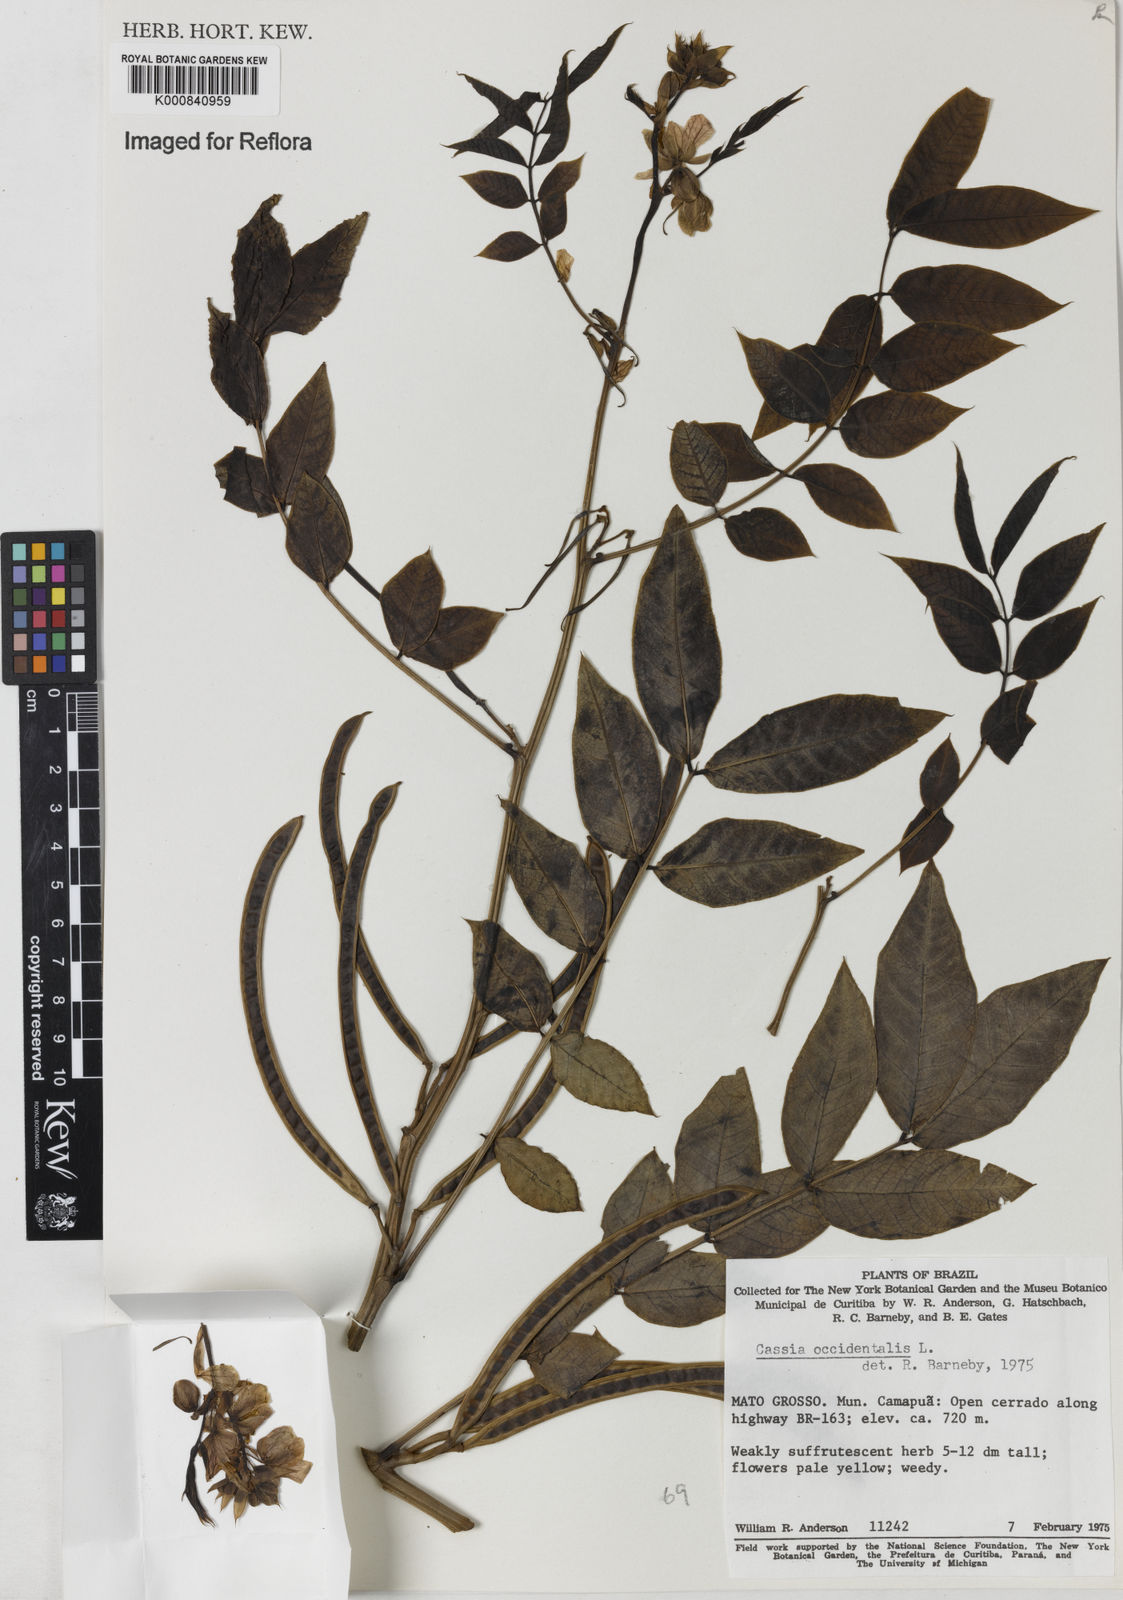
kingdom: Plantae
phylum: Tracheophyta
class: Magnoliopsida
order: Fabales
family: Fabaceae
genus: Senna
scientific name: Senna occidentalis
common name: Septicweed
